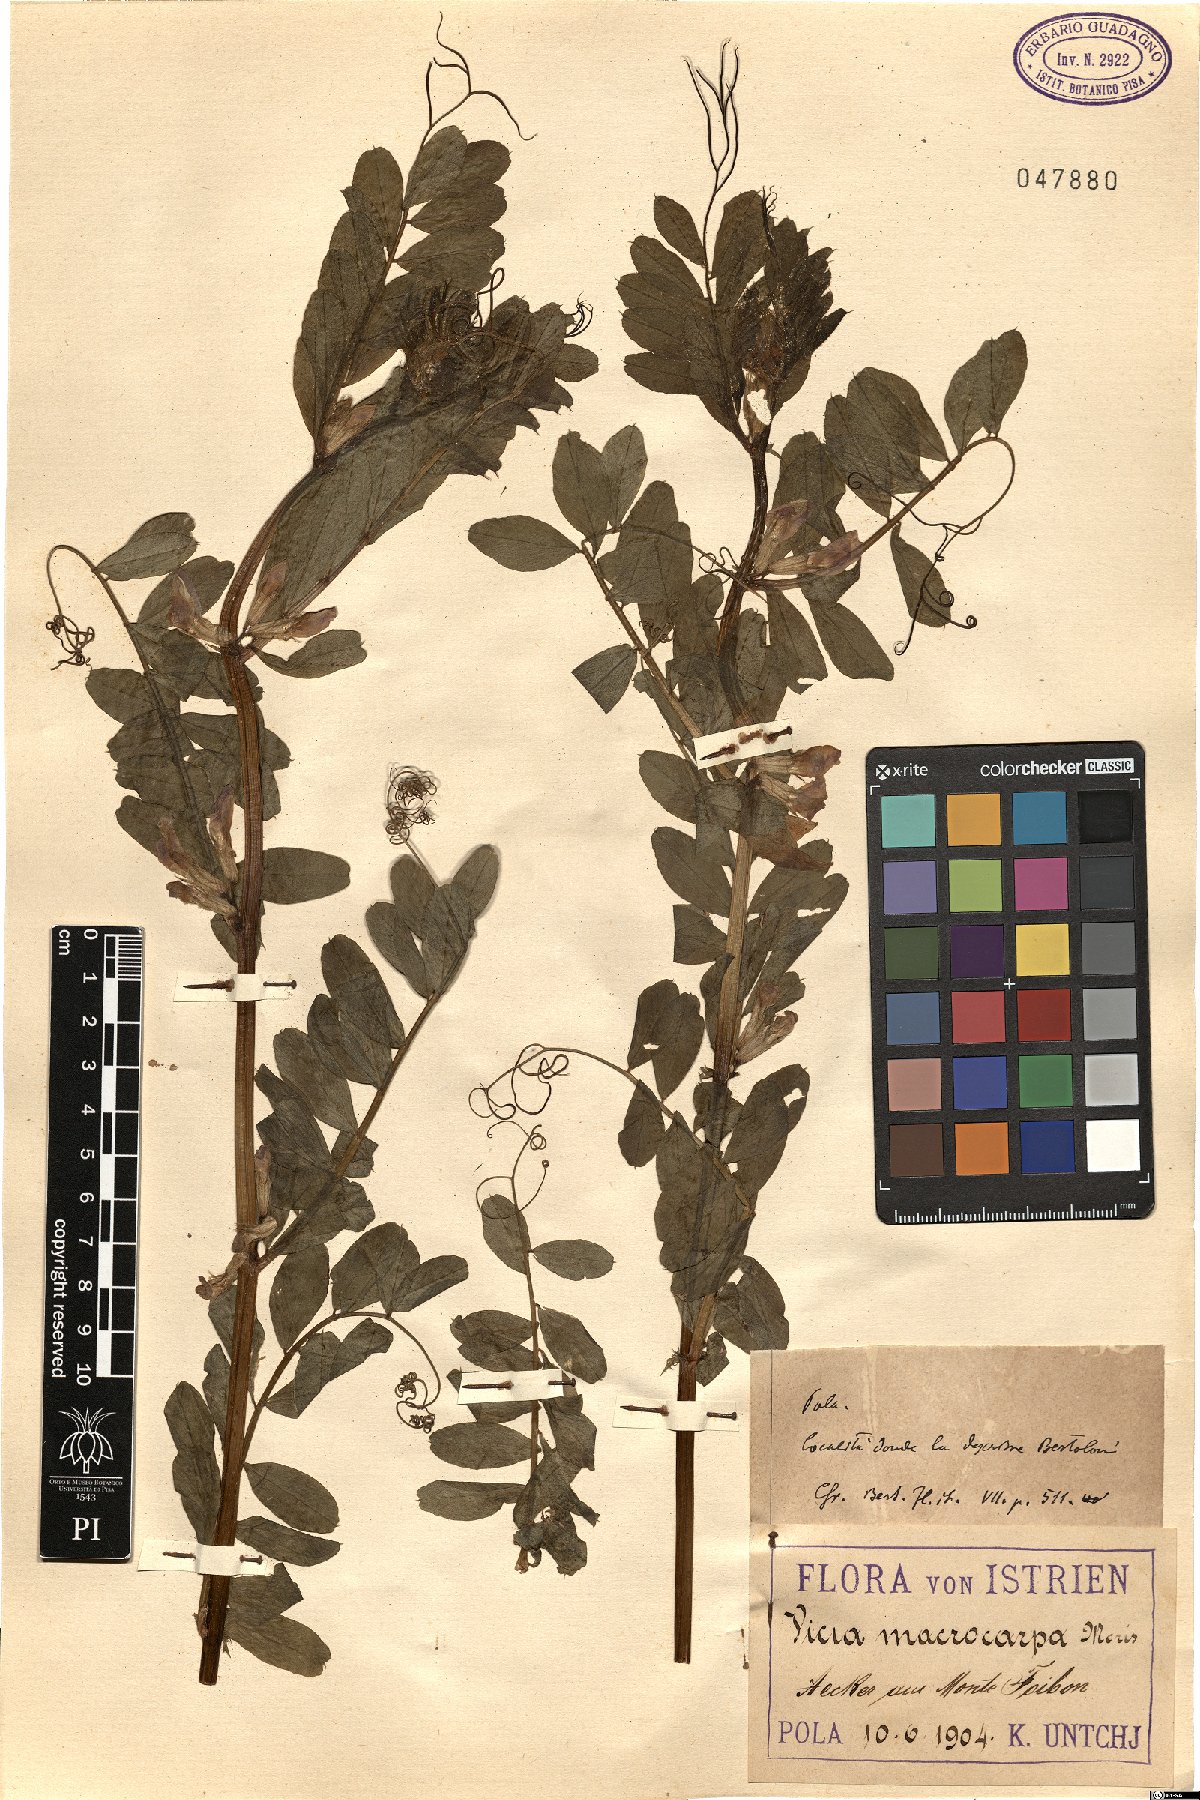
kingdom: Plantae
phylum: Tracheophyta
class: Magnoliopsida
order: Fabales
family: Fabaceae
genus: Vicia
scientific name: Vicia sativa
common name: Garden vetch
